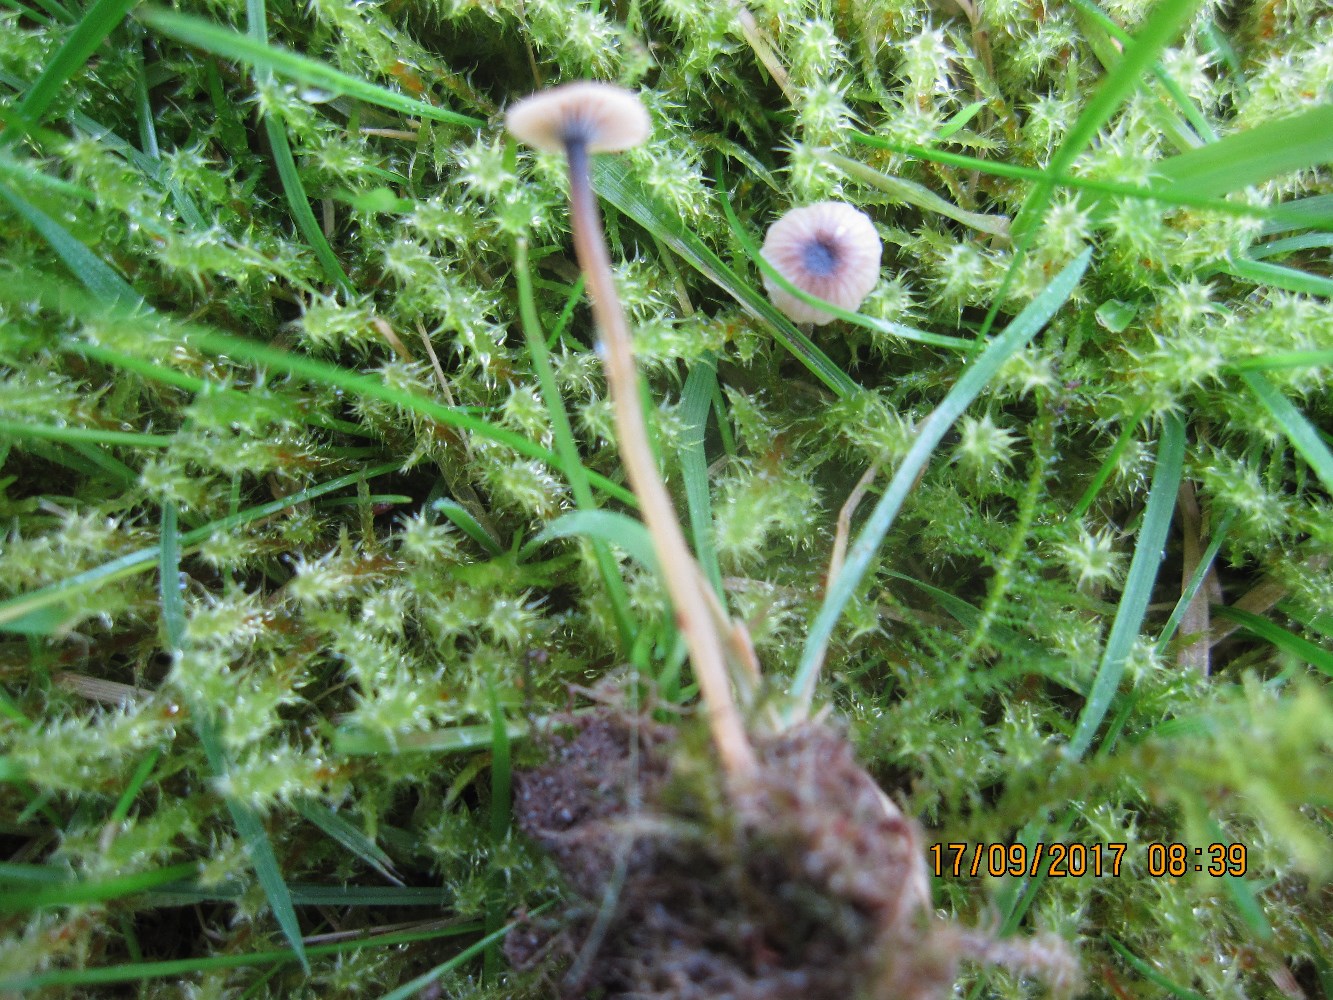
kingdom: Fungi
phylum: Basidiomycota
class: Agaricomycetes
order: Hymenochaetales
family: Rickenellaceae
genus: Rickenella
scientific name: Rickenella swartzii
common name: finstokket mosnavlehat
